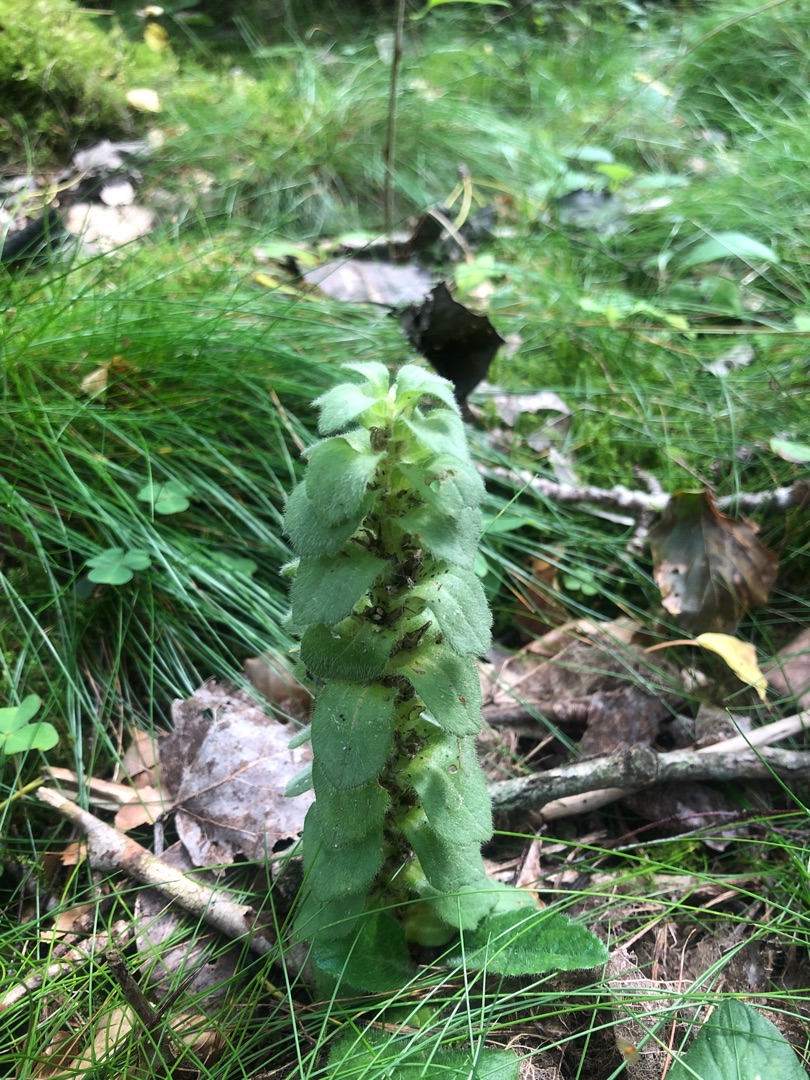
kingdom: Plantae
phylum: Tracheophyta
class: Magnoliopsida
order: Lamiales
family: Lamiaceae
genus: Ajuga
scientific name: Ajuga pyramidalis
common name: Pyramide-læbeløs
